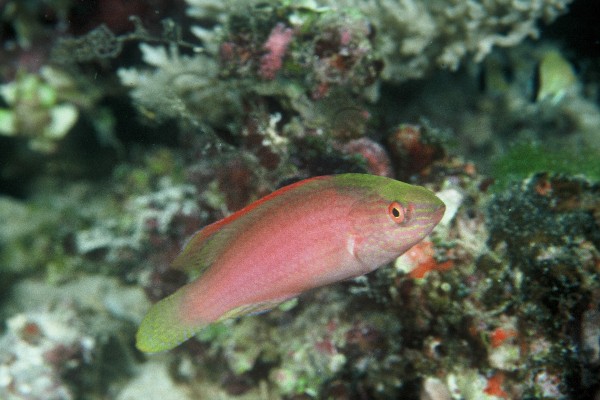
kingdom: Animalia
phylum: Chordata
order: Perciformes
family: Labridae
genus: Cirrhilabrus
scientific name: Cirrhilabrus rubrimarginatus
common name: Pink-margin wrasse
